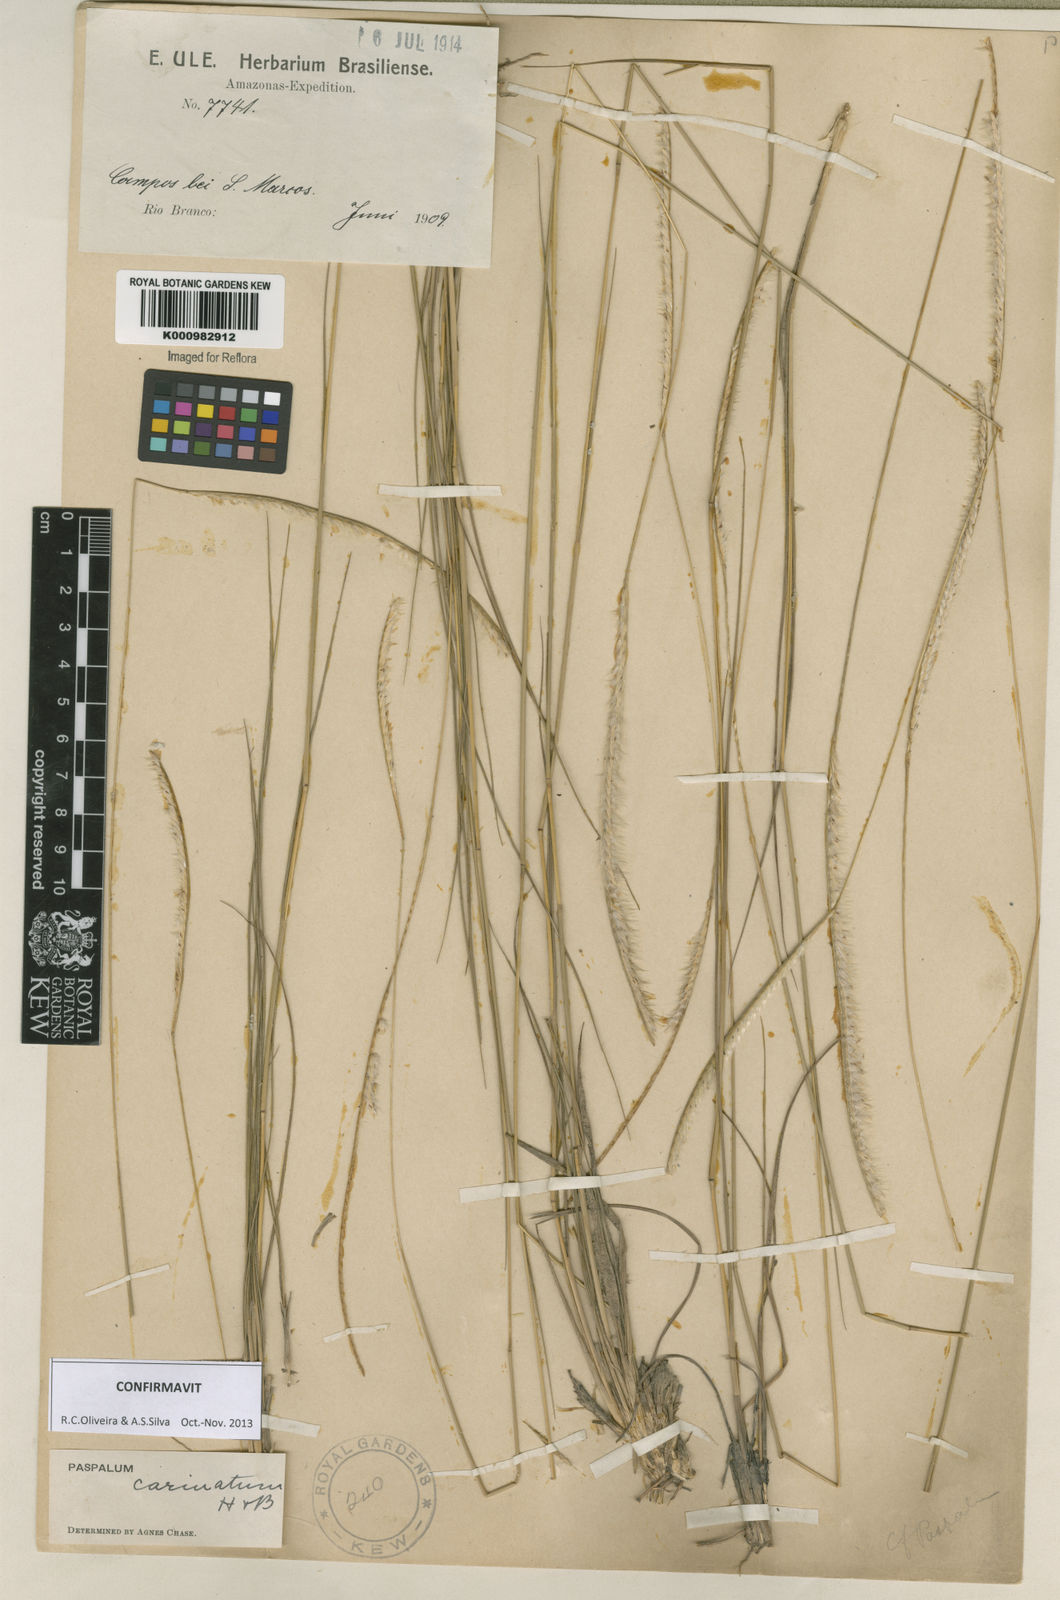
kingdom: Plantae
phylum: Tracheophyta
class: Liliopsida
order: Poales
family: Poaceae
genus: Paspalum
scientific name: Paspalum
